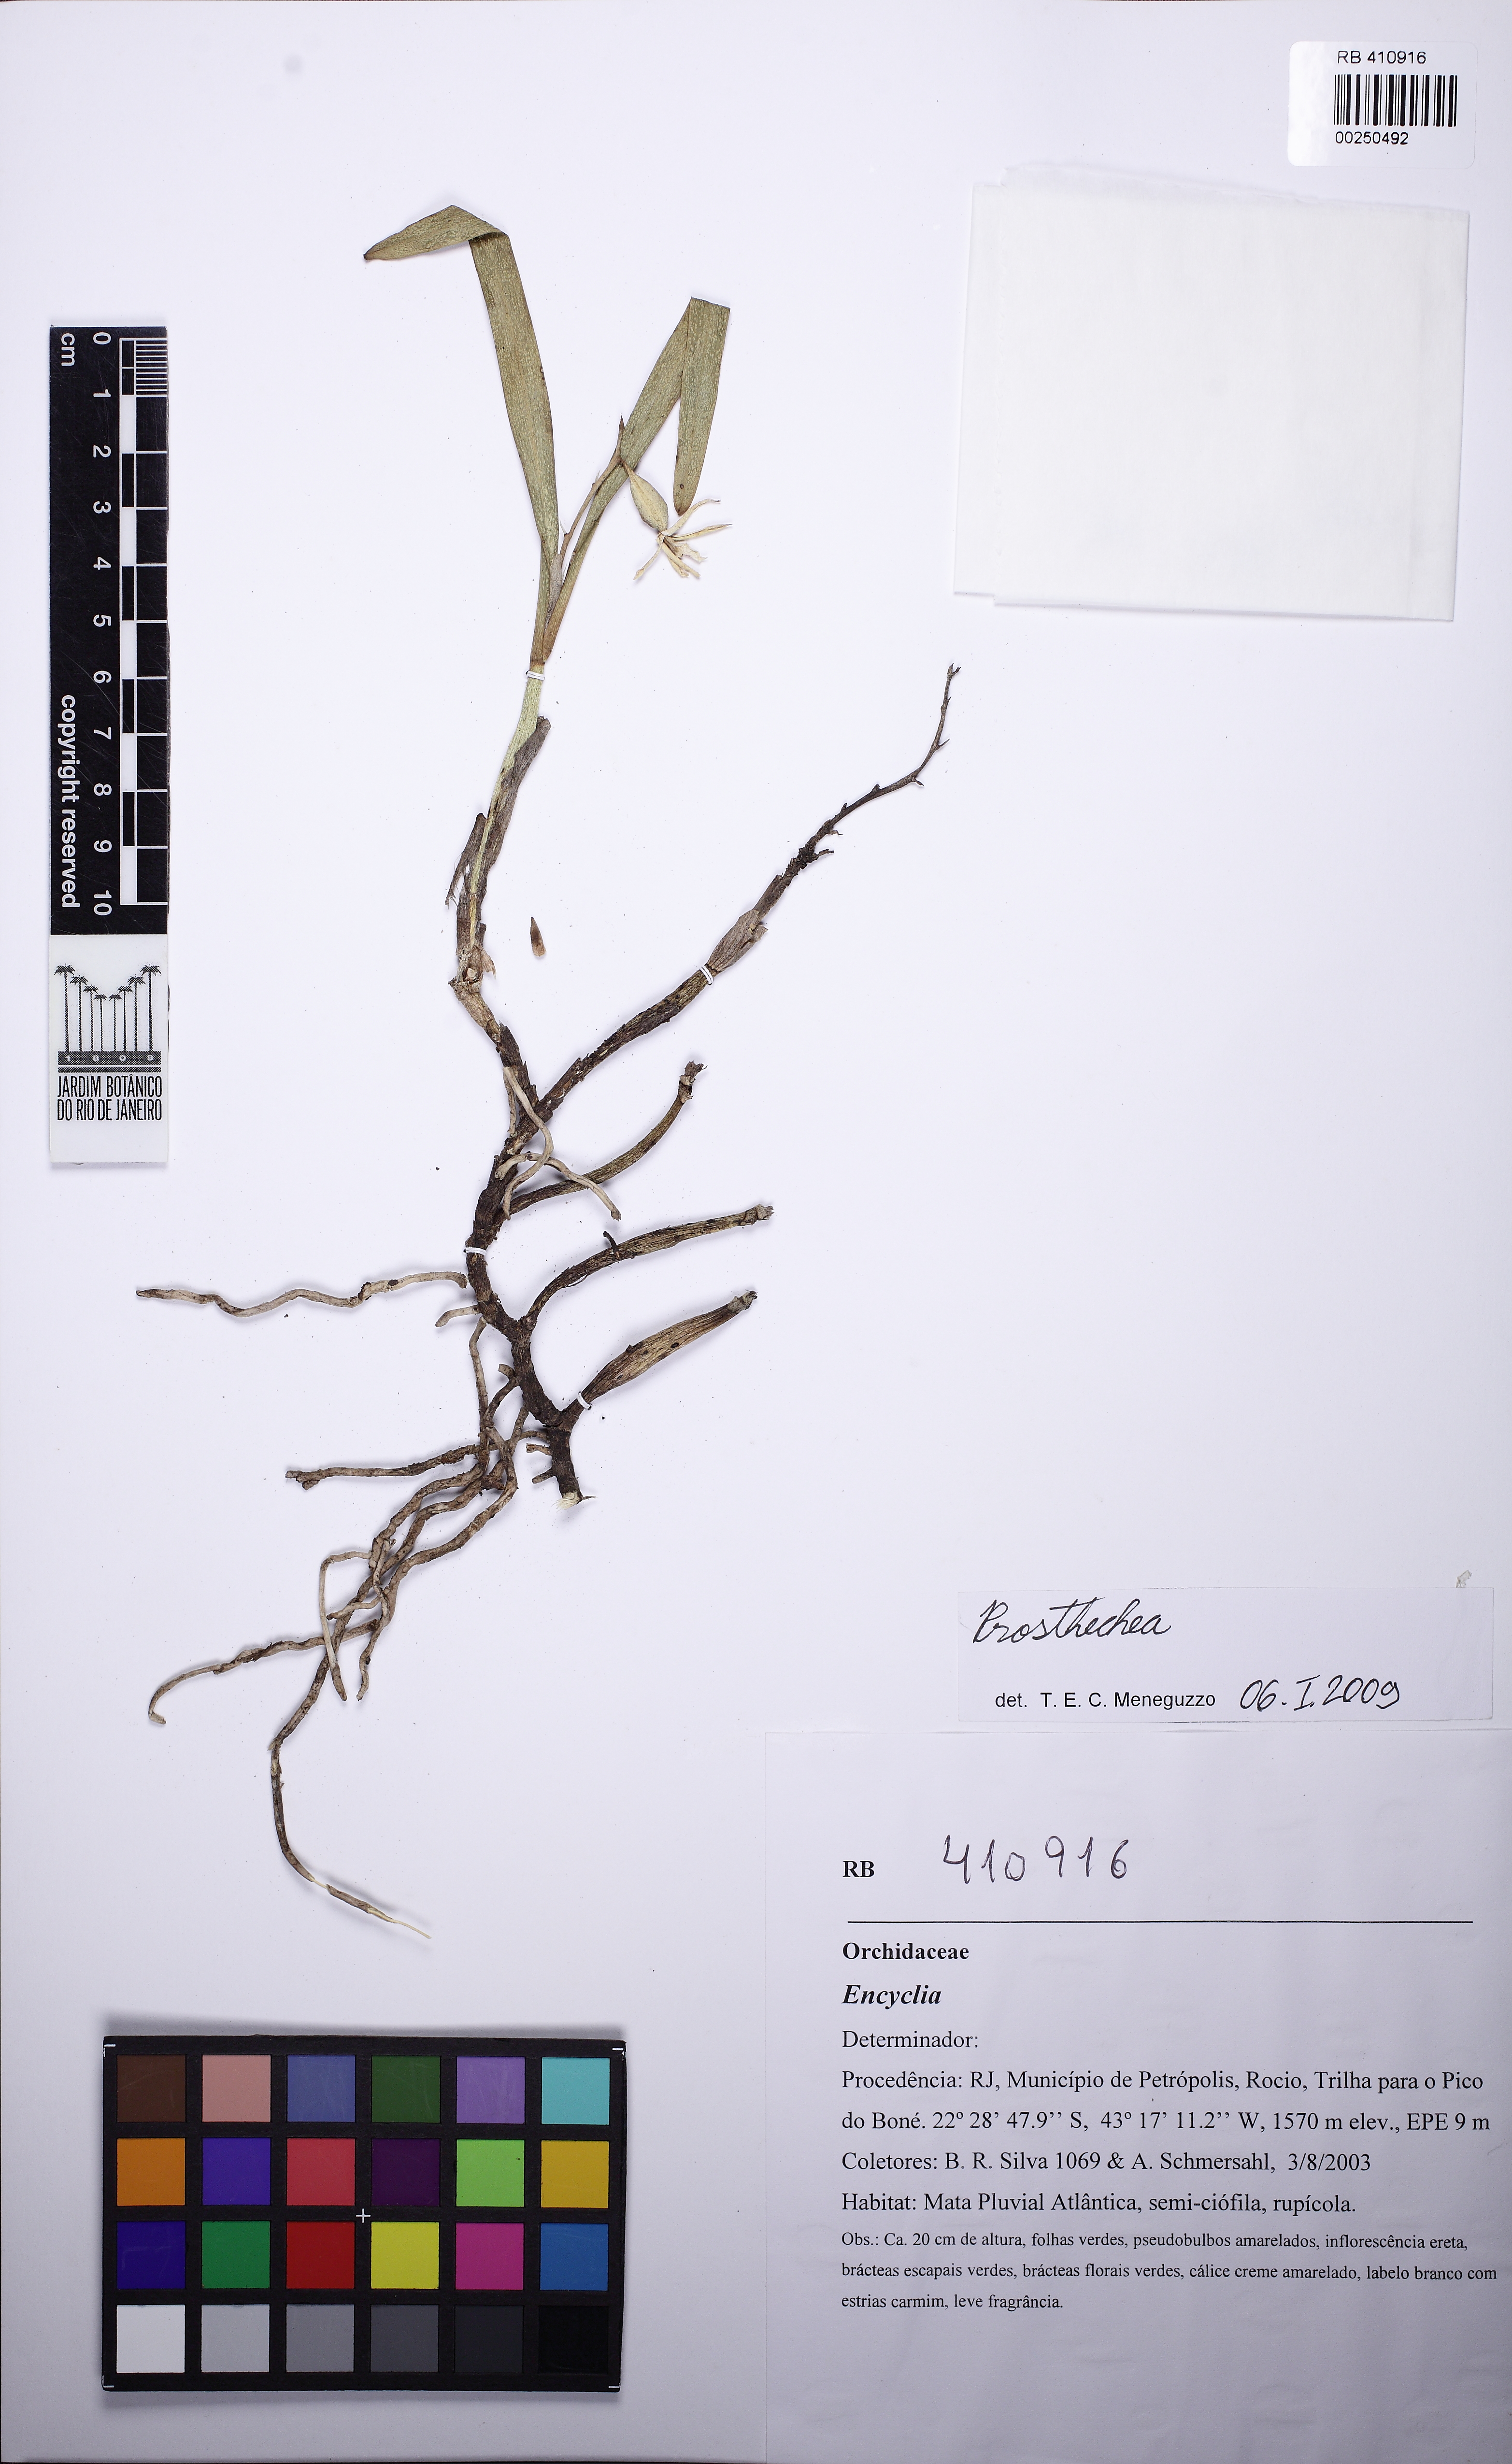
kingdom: Plantae
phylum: Tracheophyta
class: Liliopsida
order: Asparagales
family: Orchidaceae
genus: Prosthechea
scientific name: Prosthechea calamaria
